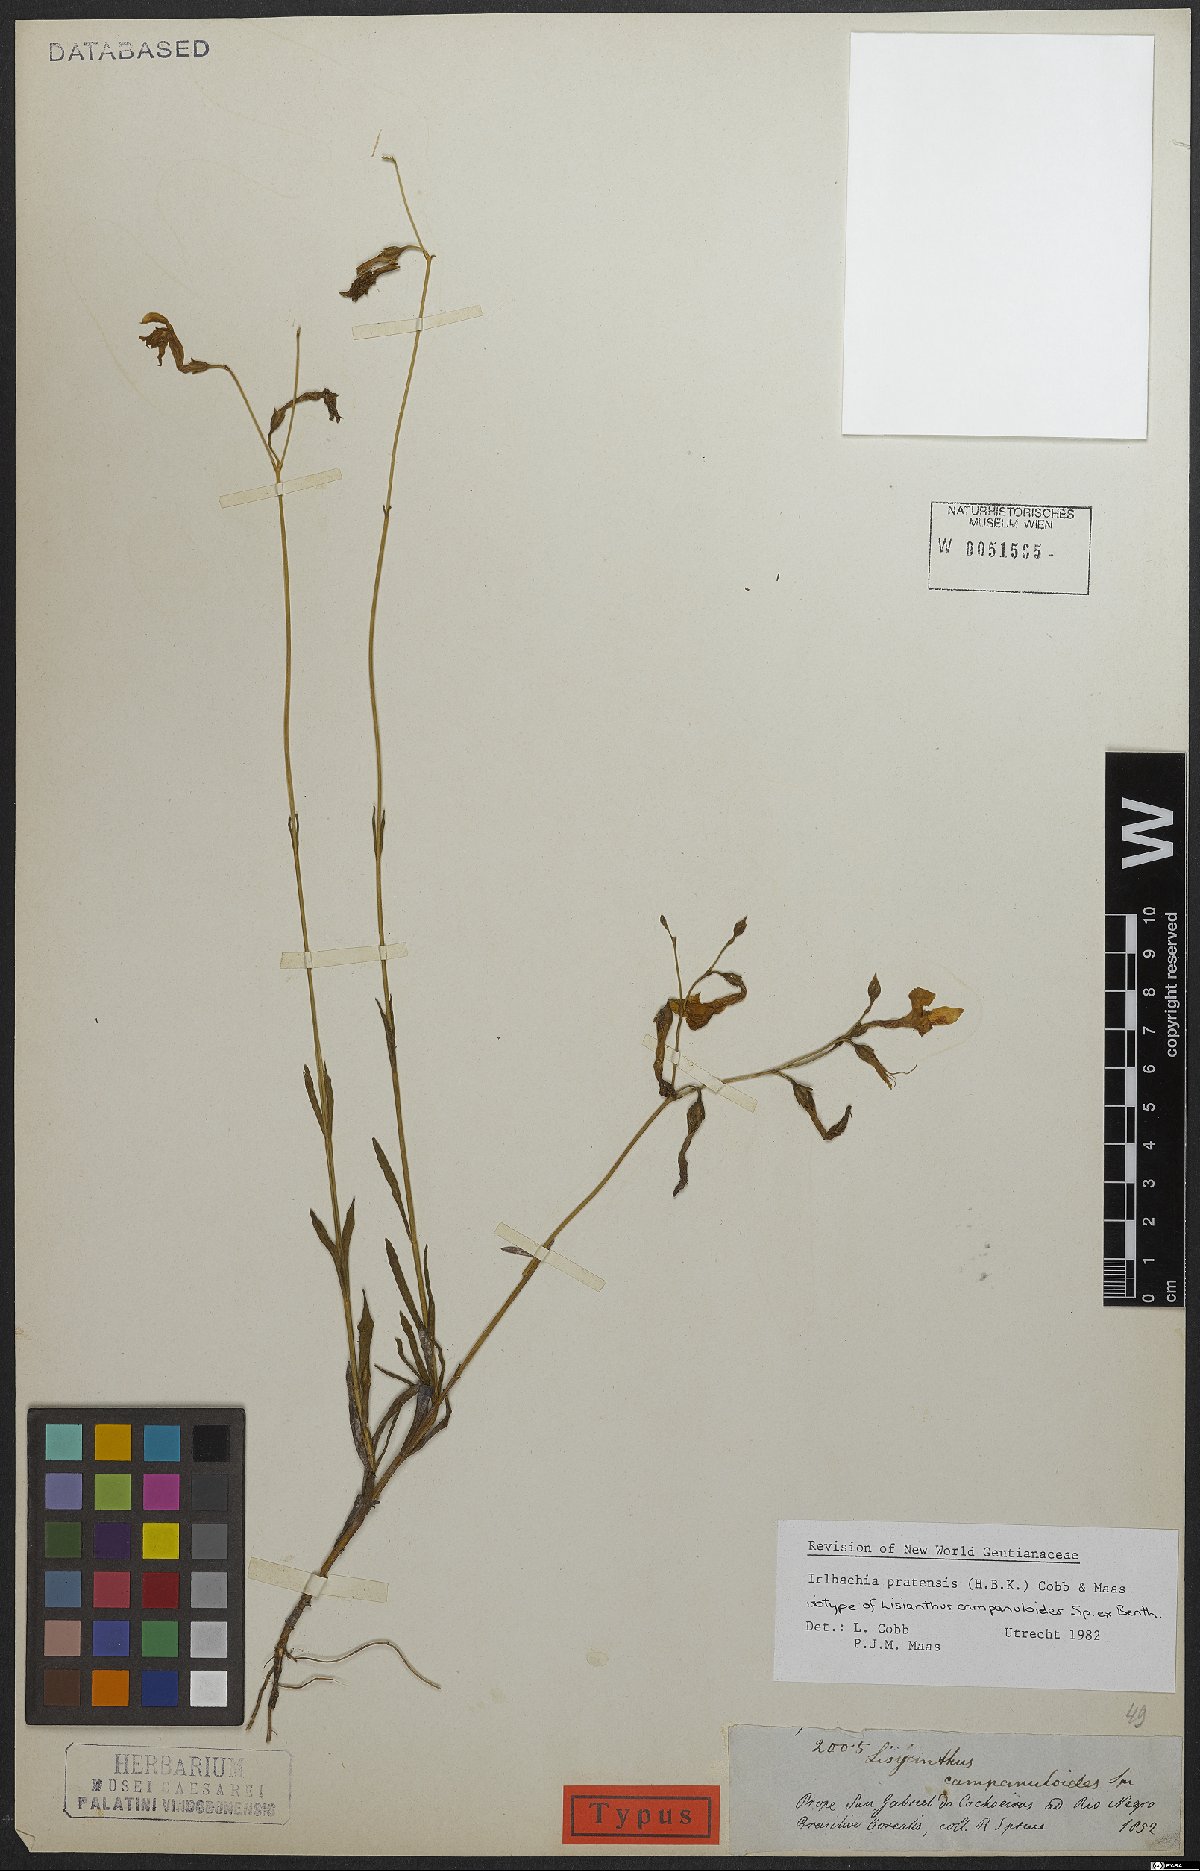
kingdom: Plantae
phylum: Tracheophyta
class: Magnoliopsida
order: Gentianales
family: Gentianaceae
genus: Irlbachia
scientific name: Irlbachia poeppigii
